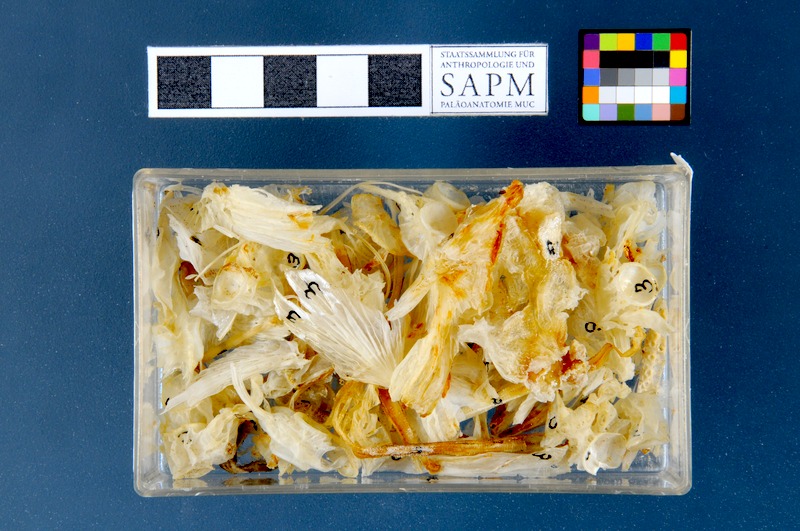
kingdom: Animalia
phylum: Chordata
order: Scorpaeniformes
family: Cyclopteridae
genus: Cyclopterus
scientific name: Cyclopterus lumpus
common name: Lumpsucker
